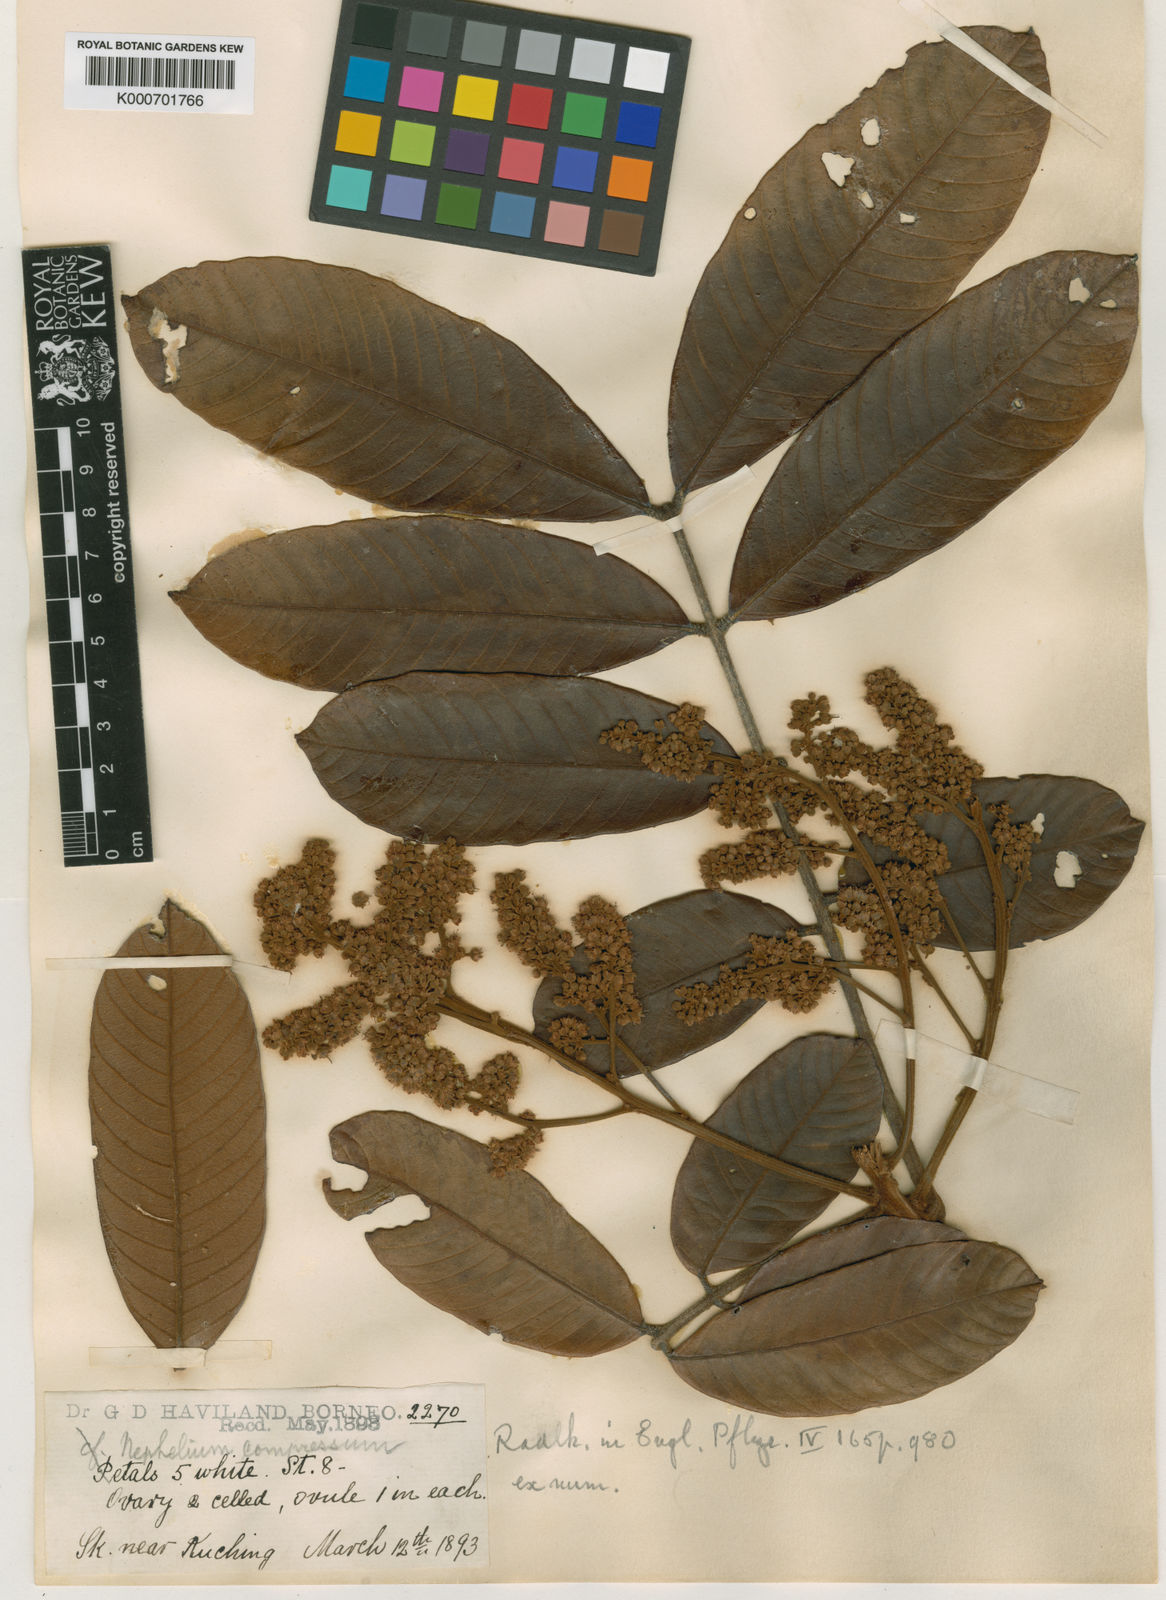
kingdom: Plantae
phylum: Tracheophyta
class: Magnoliopsida
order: Sapindales
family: Sapindaceae
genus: Nephelium
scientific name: Nephelium compressum
